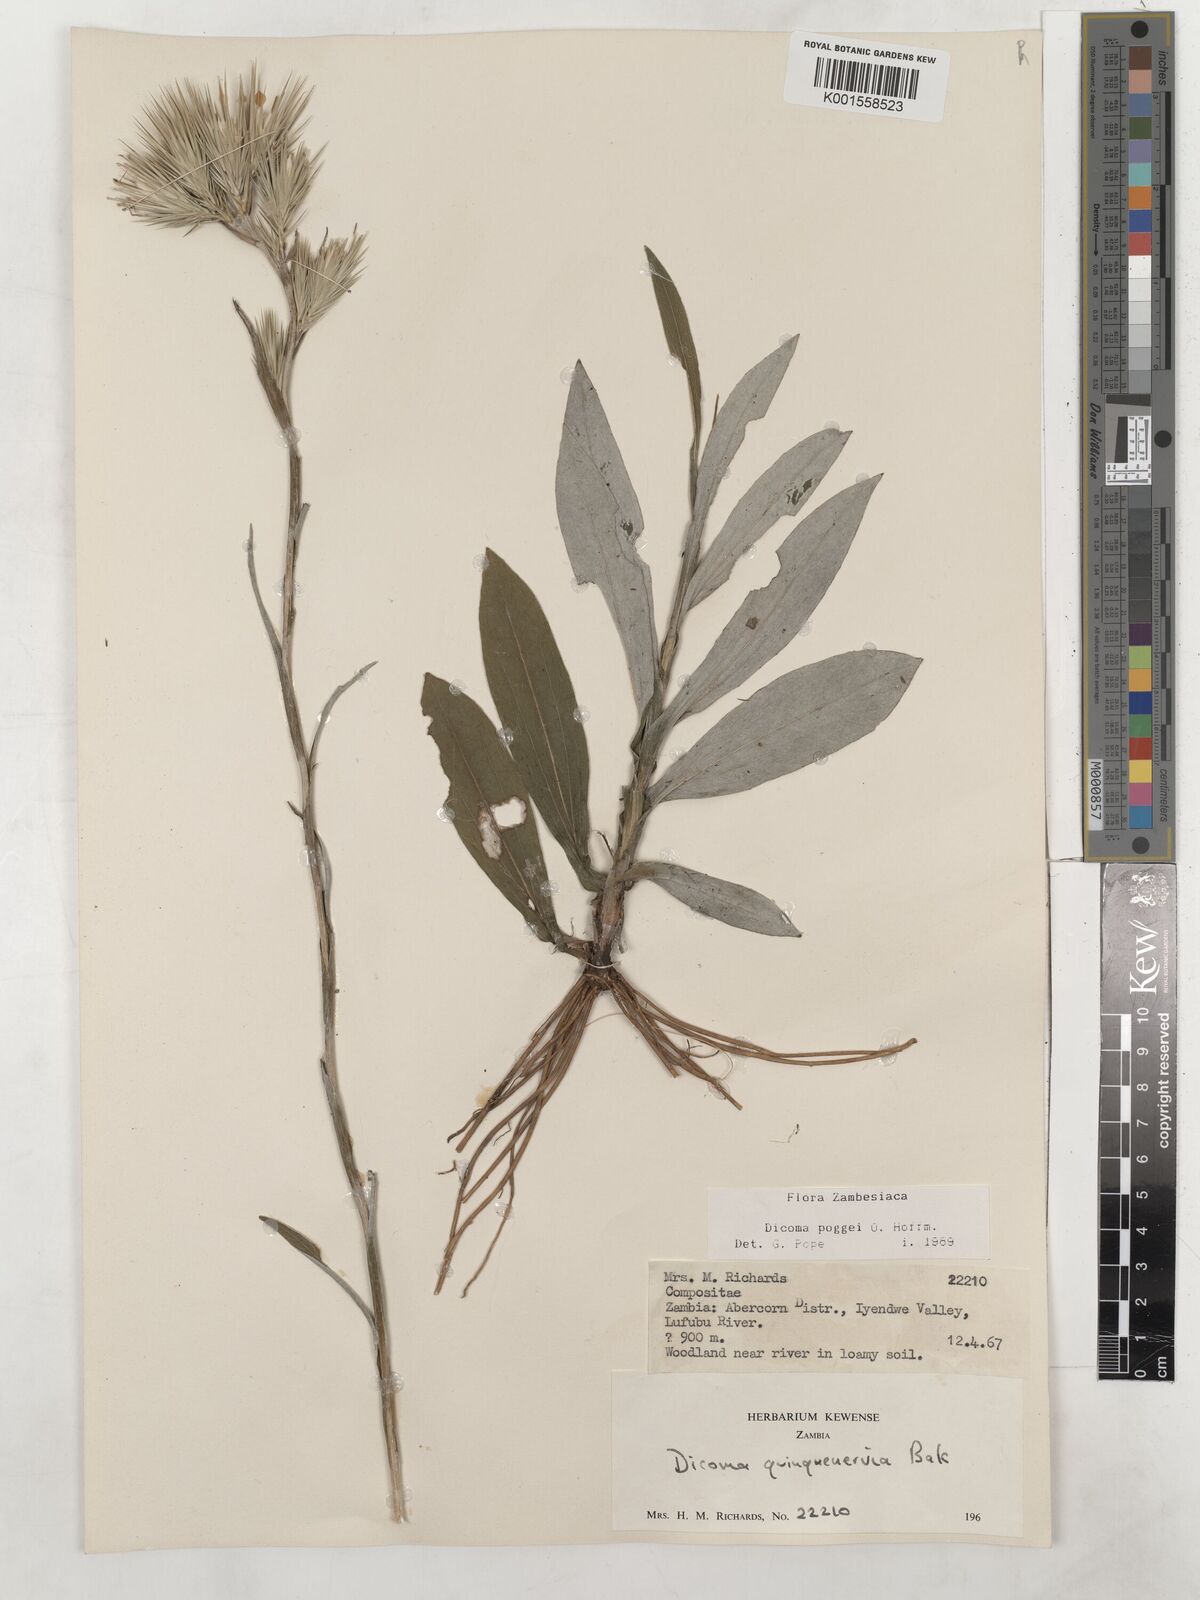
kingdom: Plantae
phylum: Tracheophyta
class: Magnoliopsida
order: Asterales
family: Asteraceae
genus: Macledium
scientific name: Macledium poggei
